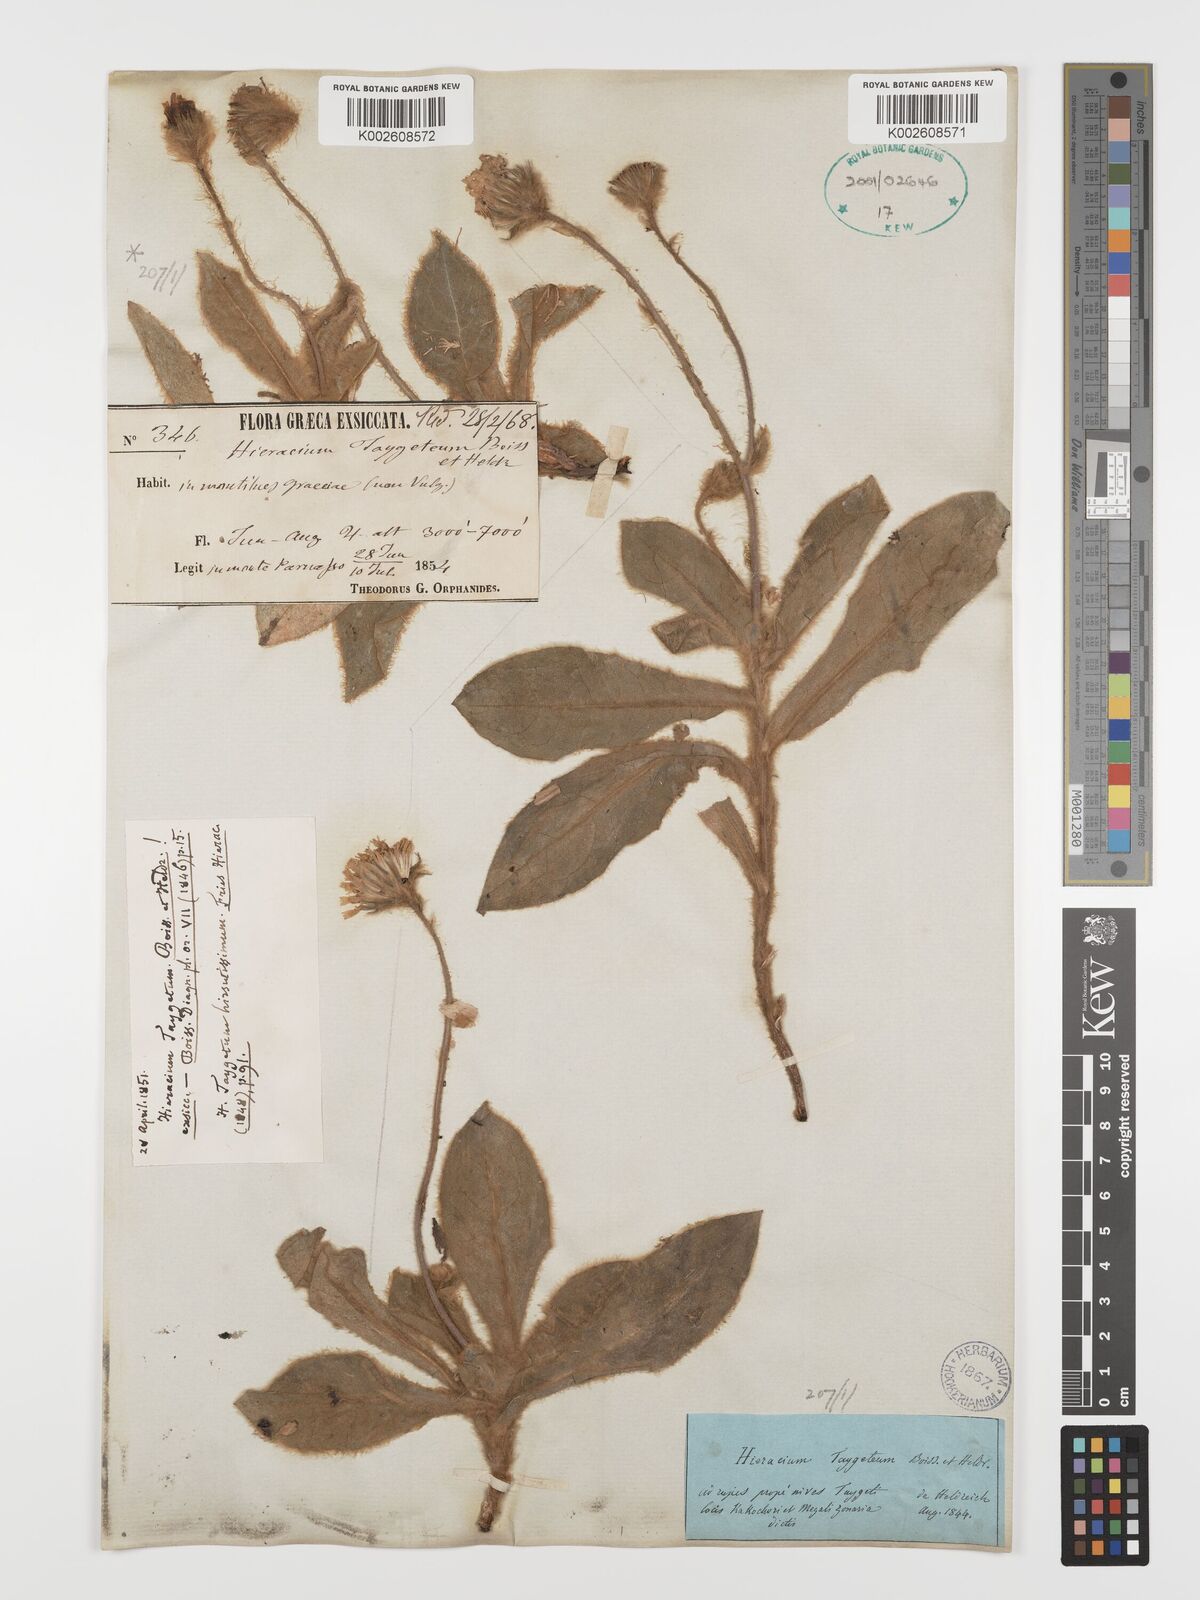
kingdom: Plantae
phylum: Tracheophyta
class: Magnoliopsida
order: Asterales
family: Asteraceae
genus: Hieracium
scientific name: Hieracium pannosum
